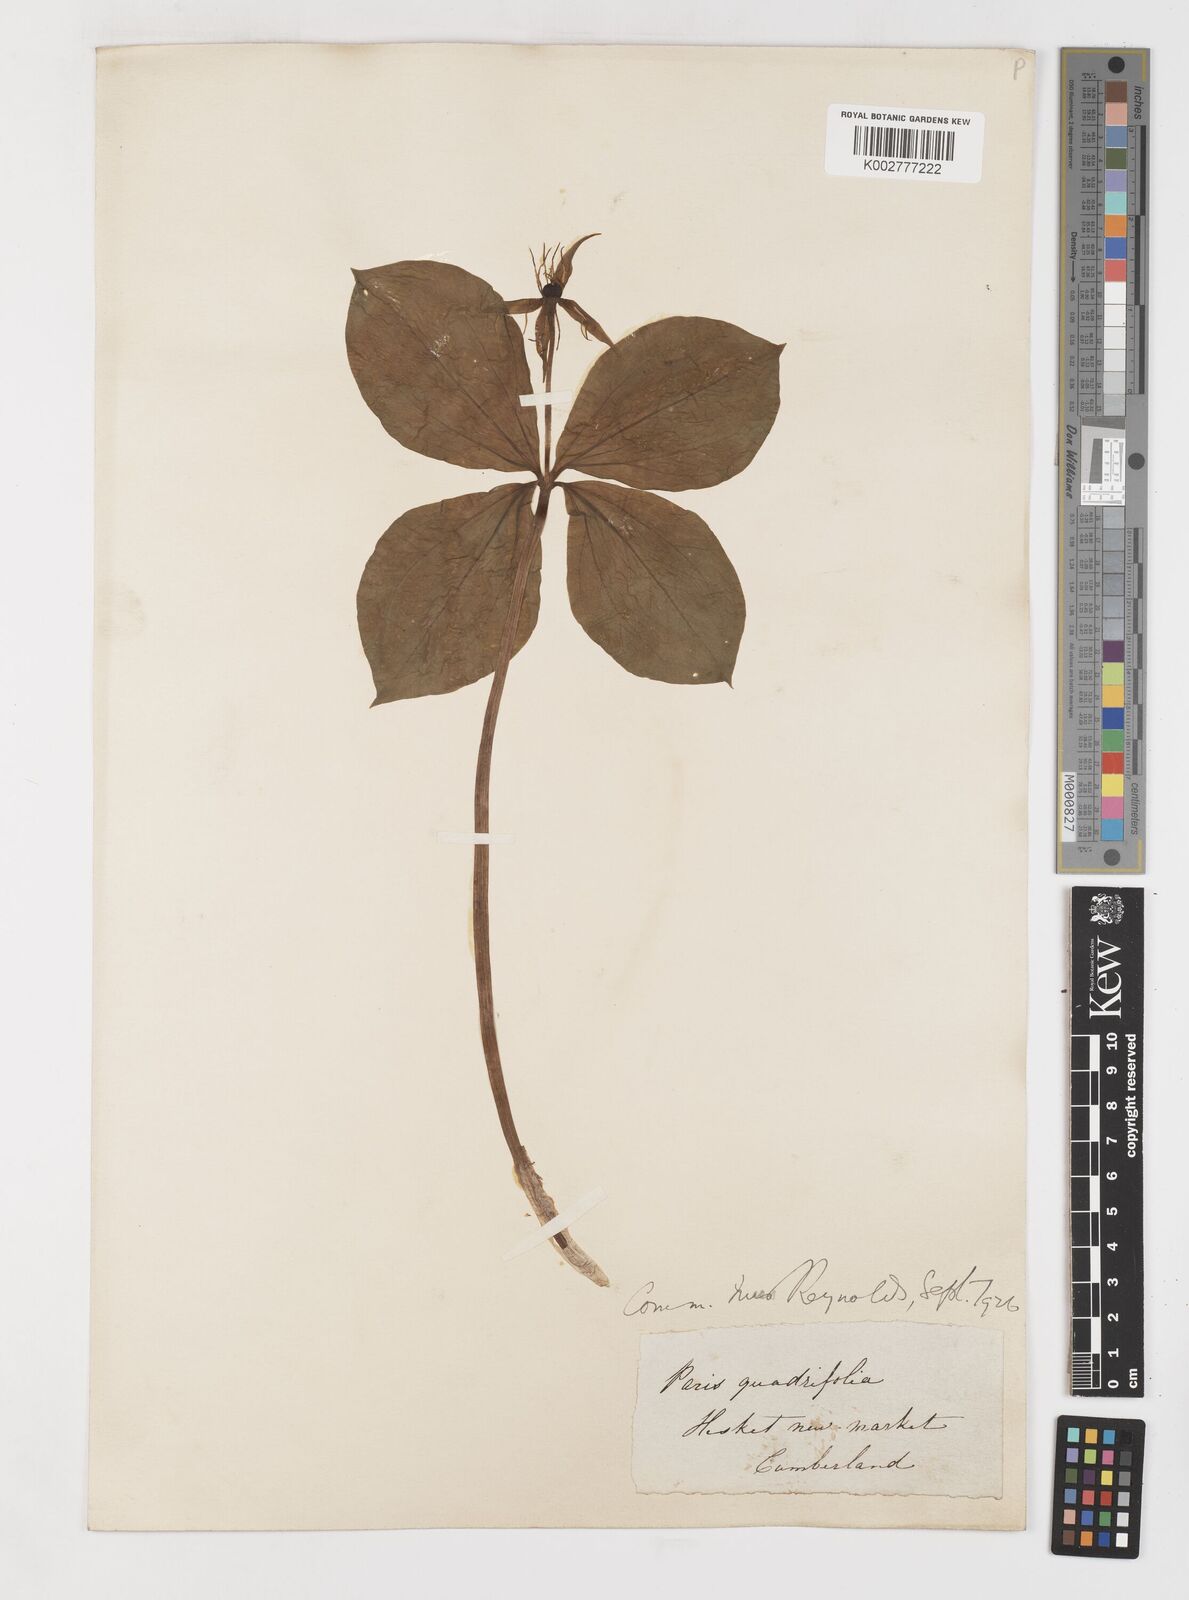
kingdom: Plantae
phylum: Tracheophyta
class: Liliopsida
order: Liliales
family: Melanthiaceae
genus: Paris
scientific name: Paris quadrifolia
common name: Herb-paris
